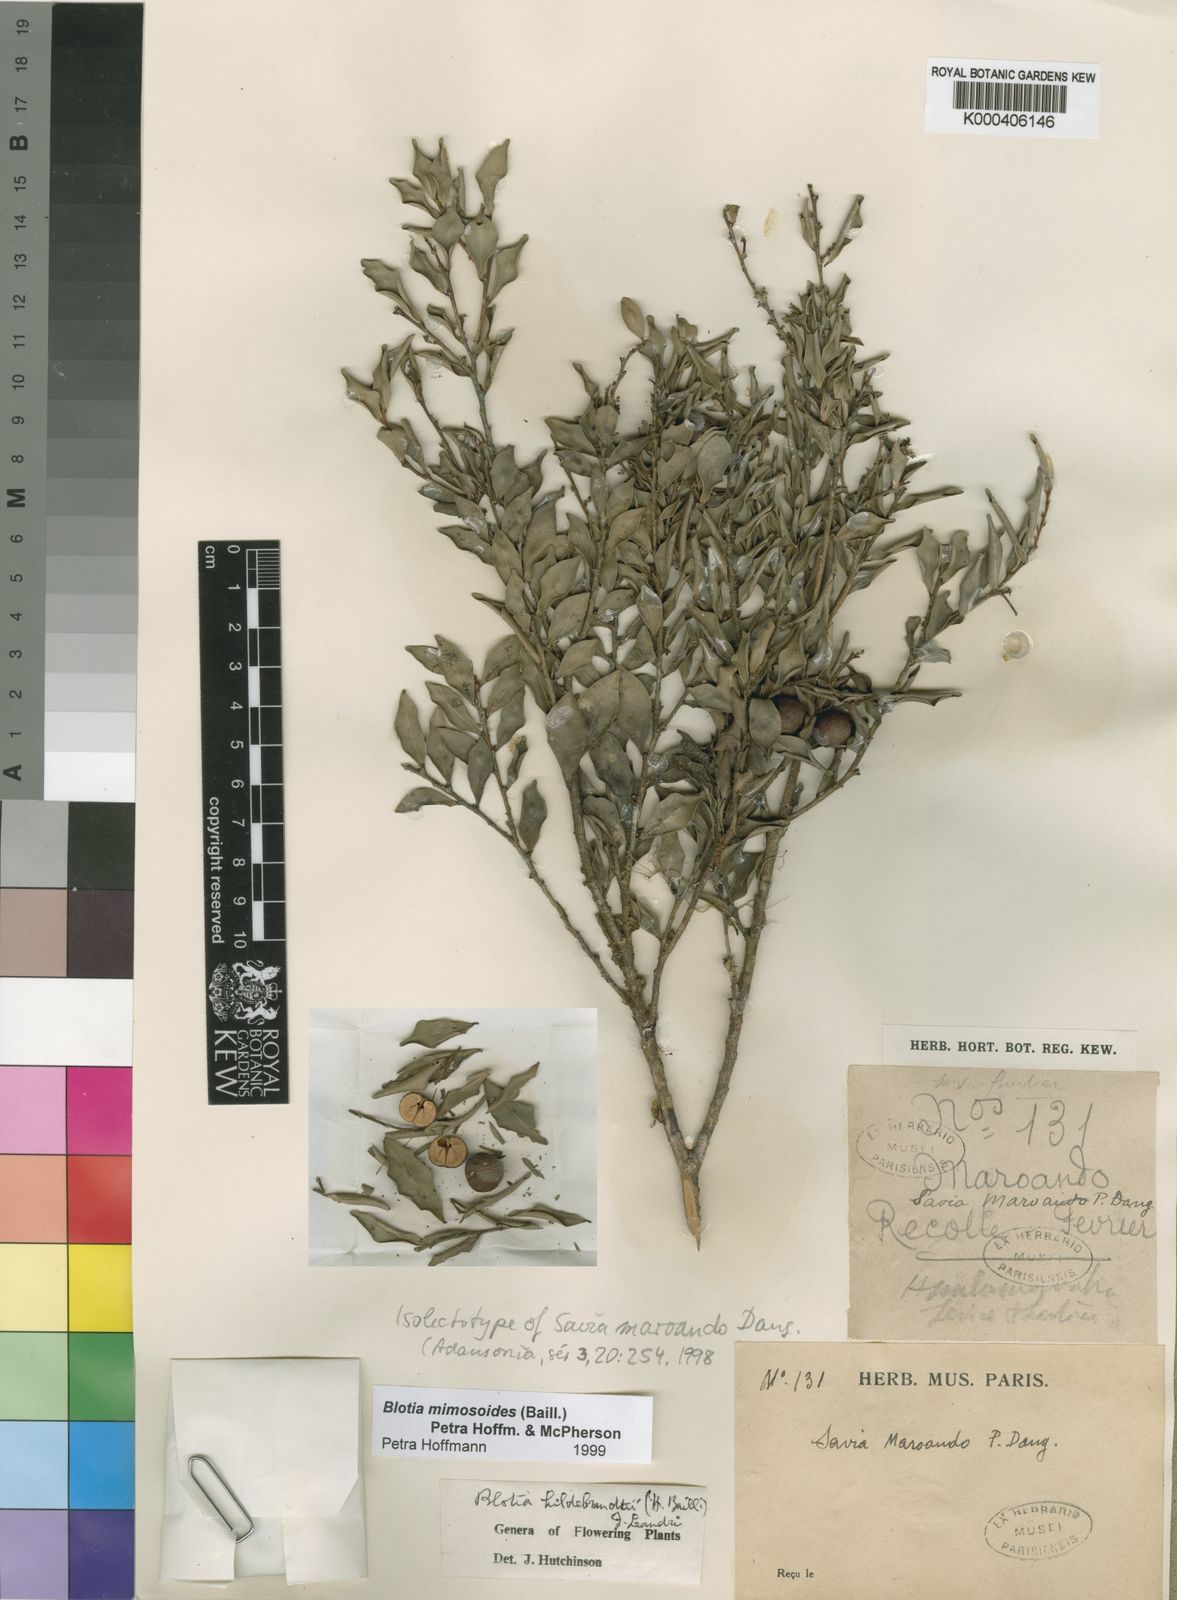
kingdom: Plantae
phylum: Tracheophyta
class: Magnoliopsida
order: Malpighiales
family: Phyllanthaceae
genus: Wielandia
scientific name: Wielandia mimosoides
